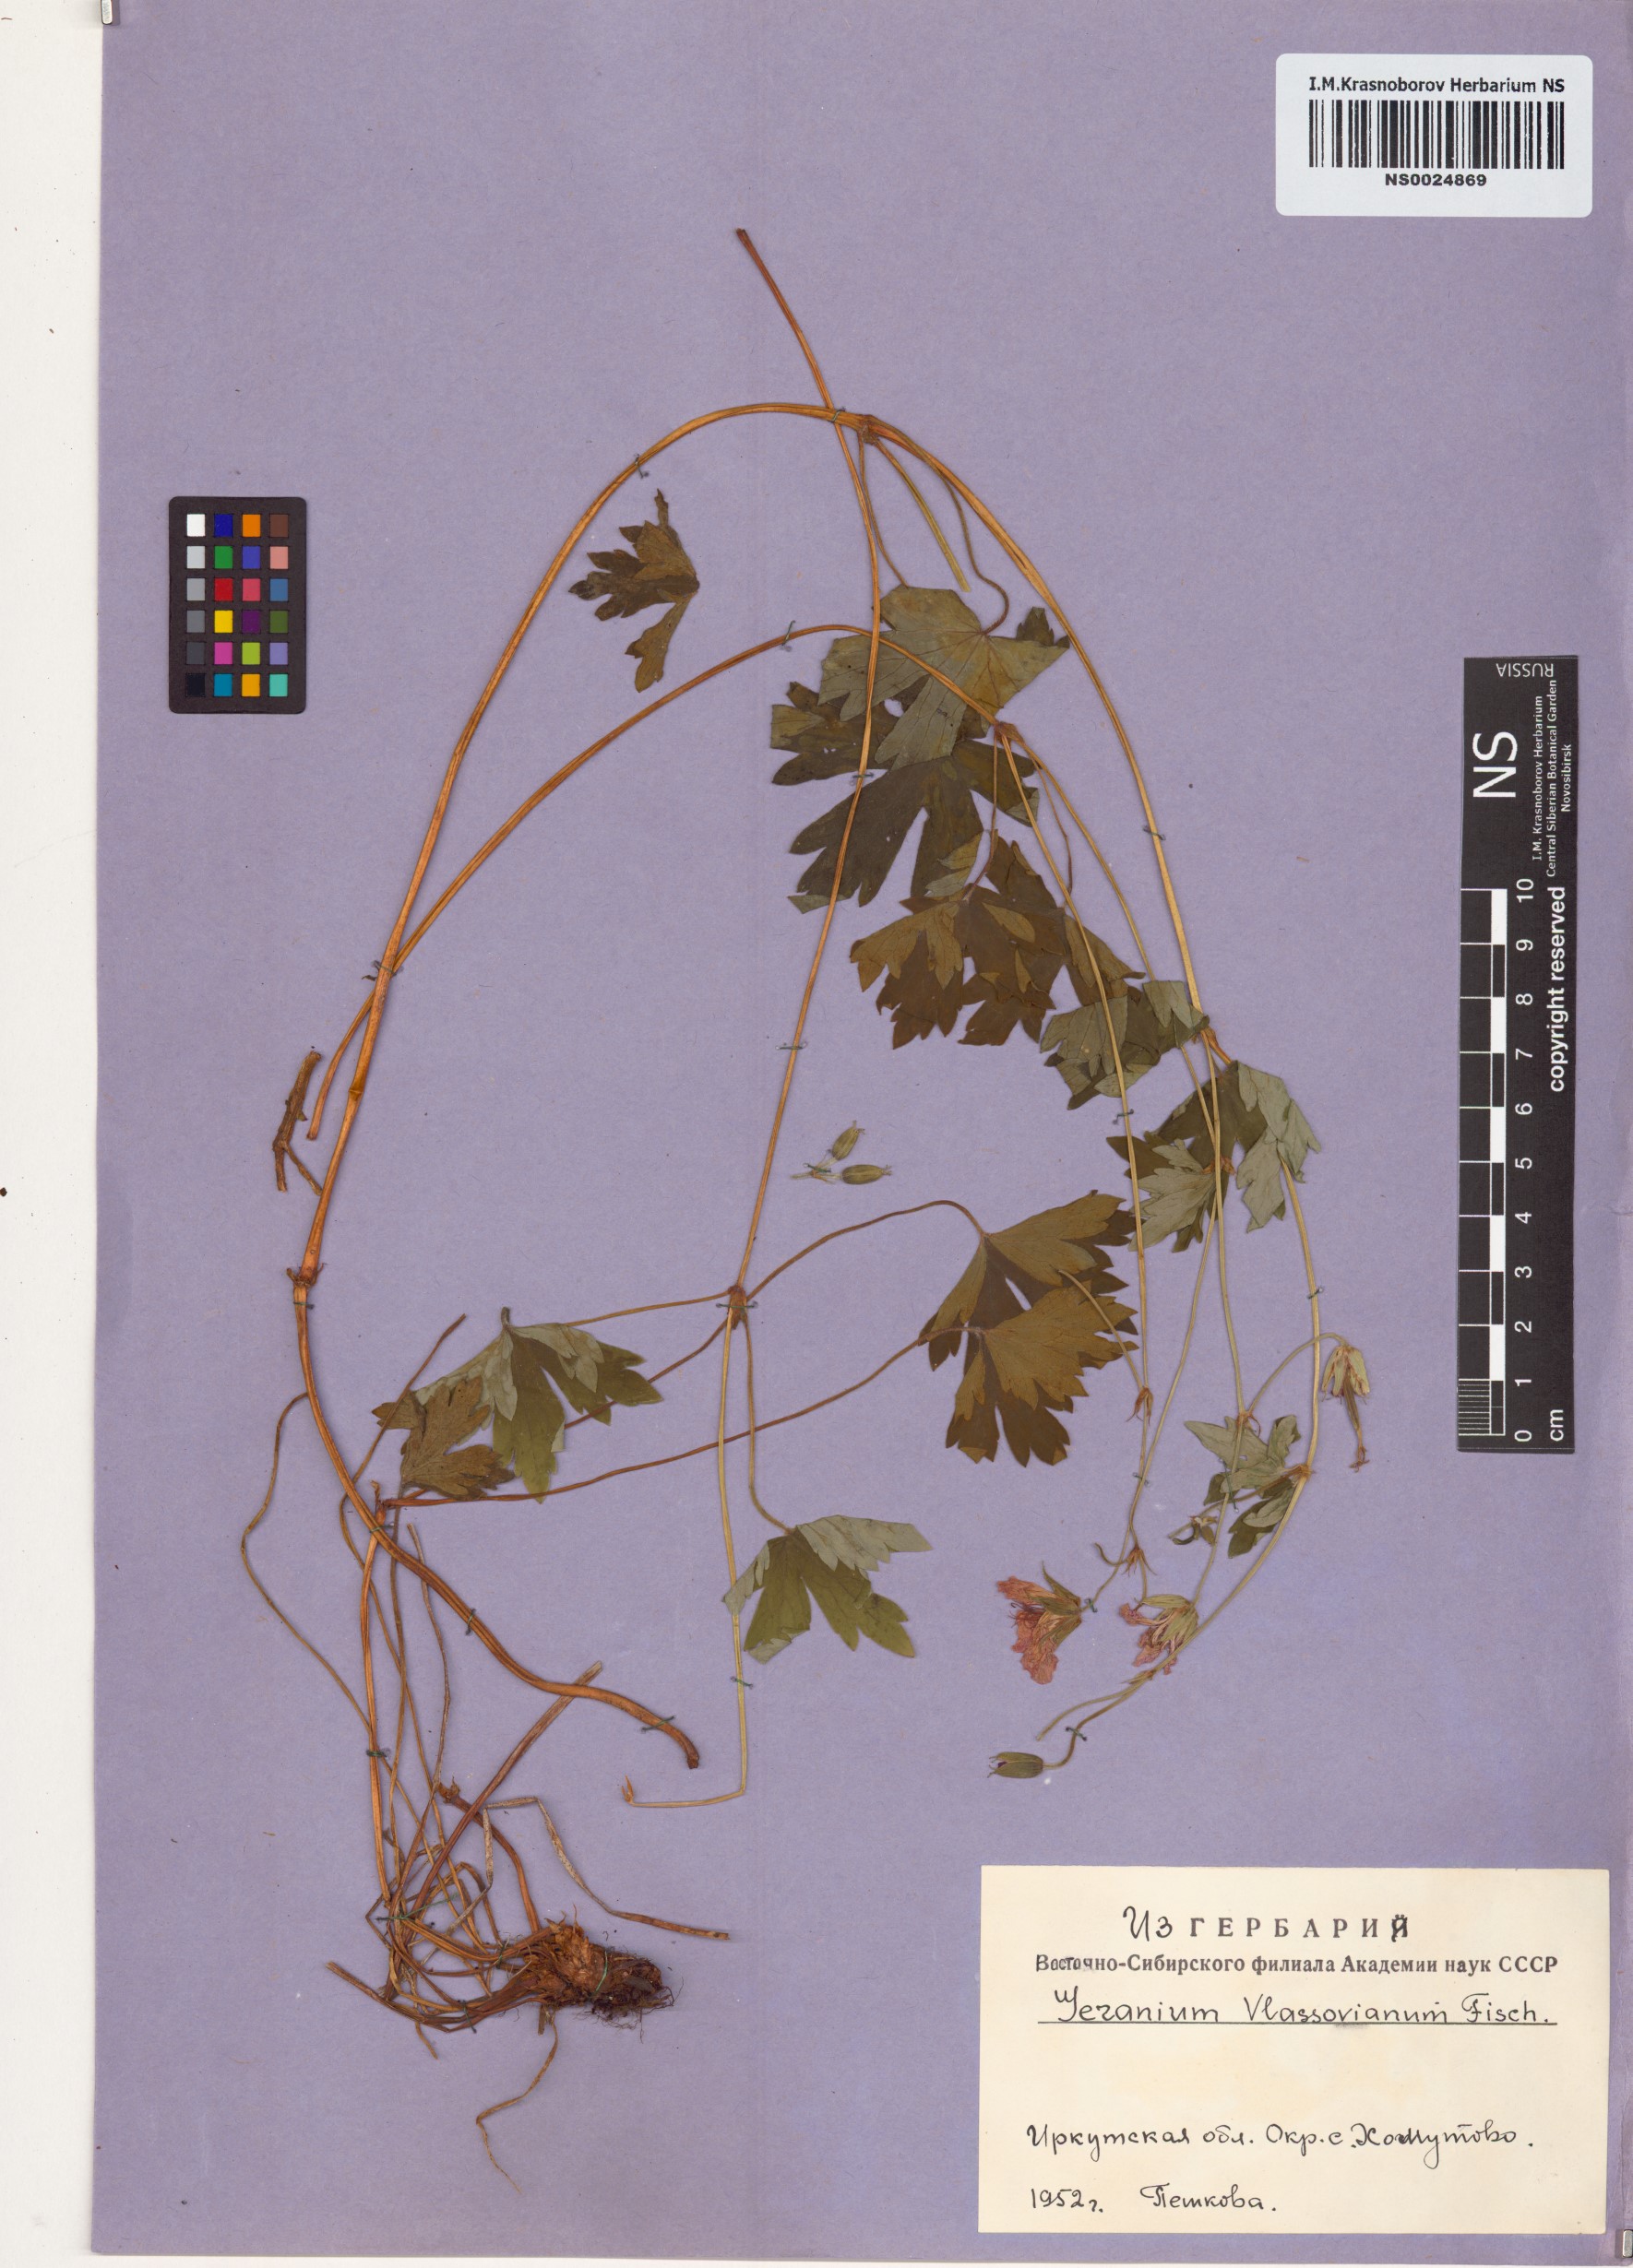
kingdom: Plantae
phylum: Tracheophyta
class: Magnoliopsida
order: Geraniales
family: Geraniaceae
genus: Geranium
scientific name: Geranium wlassovianum
